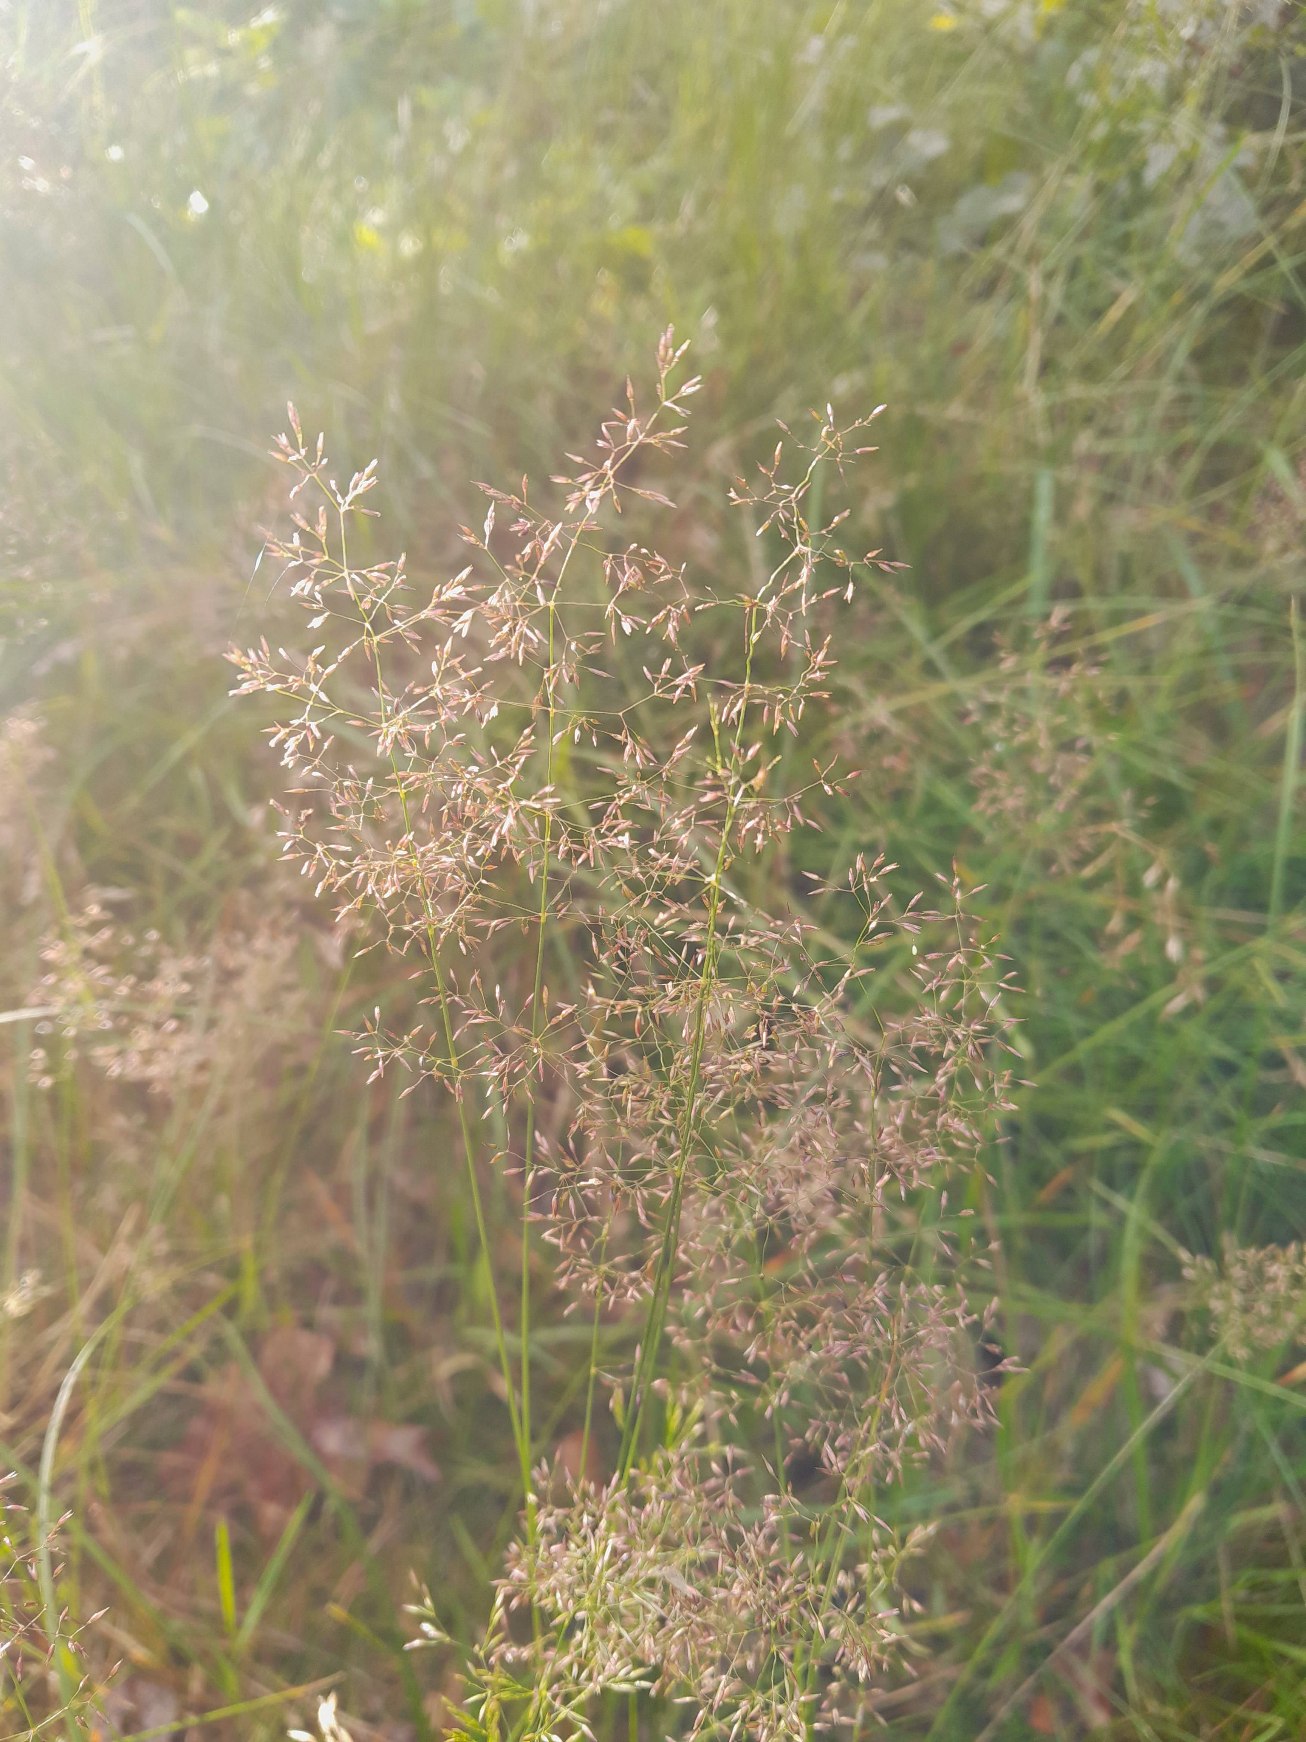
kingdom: Plantae
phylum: Tracheophyta
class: Liliopsida
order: Poales
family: Poaceae
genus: Agrostis
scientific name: Agrostis capillaris
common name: Almindelig hvene
